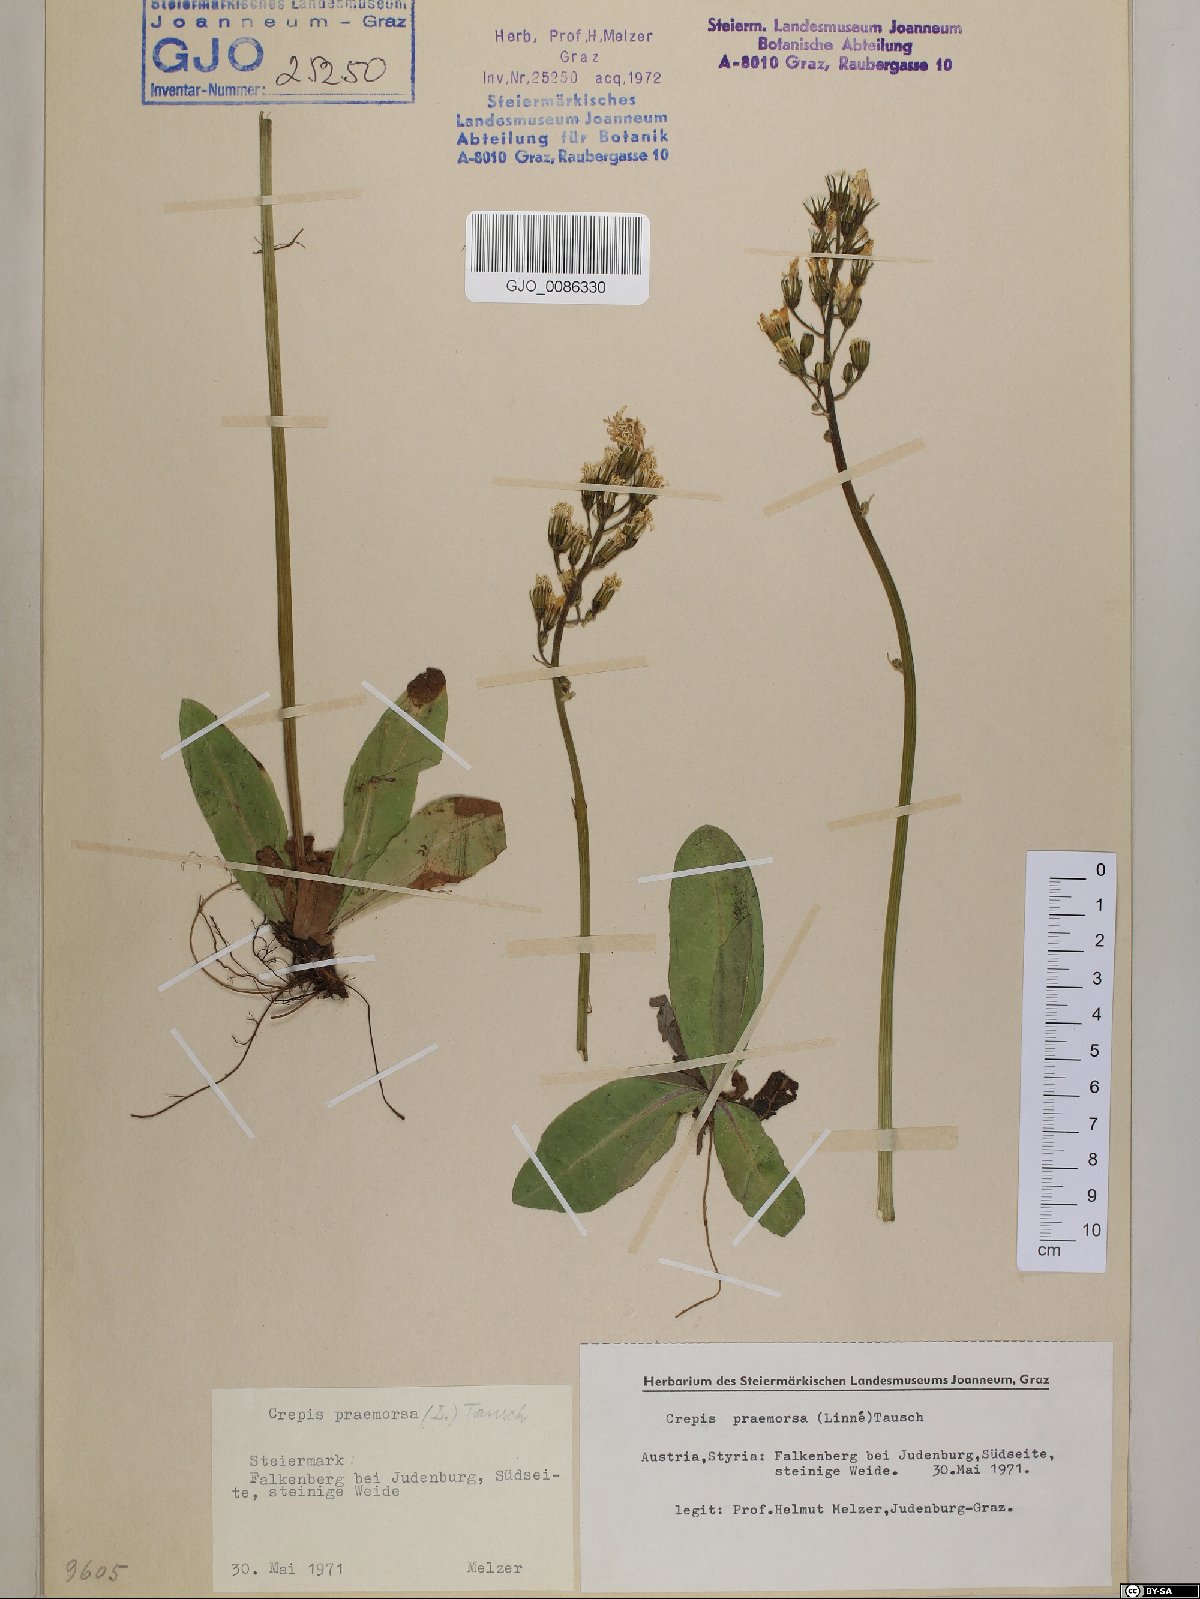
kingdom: Plantae
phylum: Tracheophyta
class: Magnoliopsida
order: Asterales
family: Asteraceae
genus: Crepis
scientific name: Crepis praemorsa
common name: Leafless hawk's-beard
